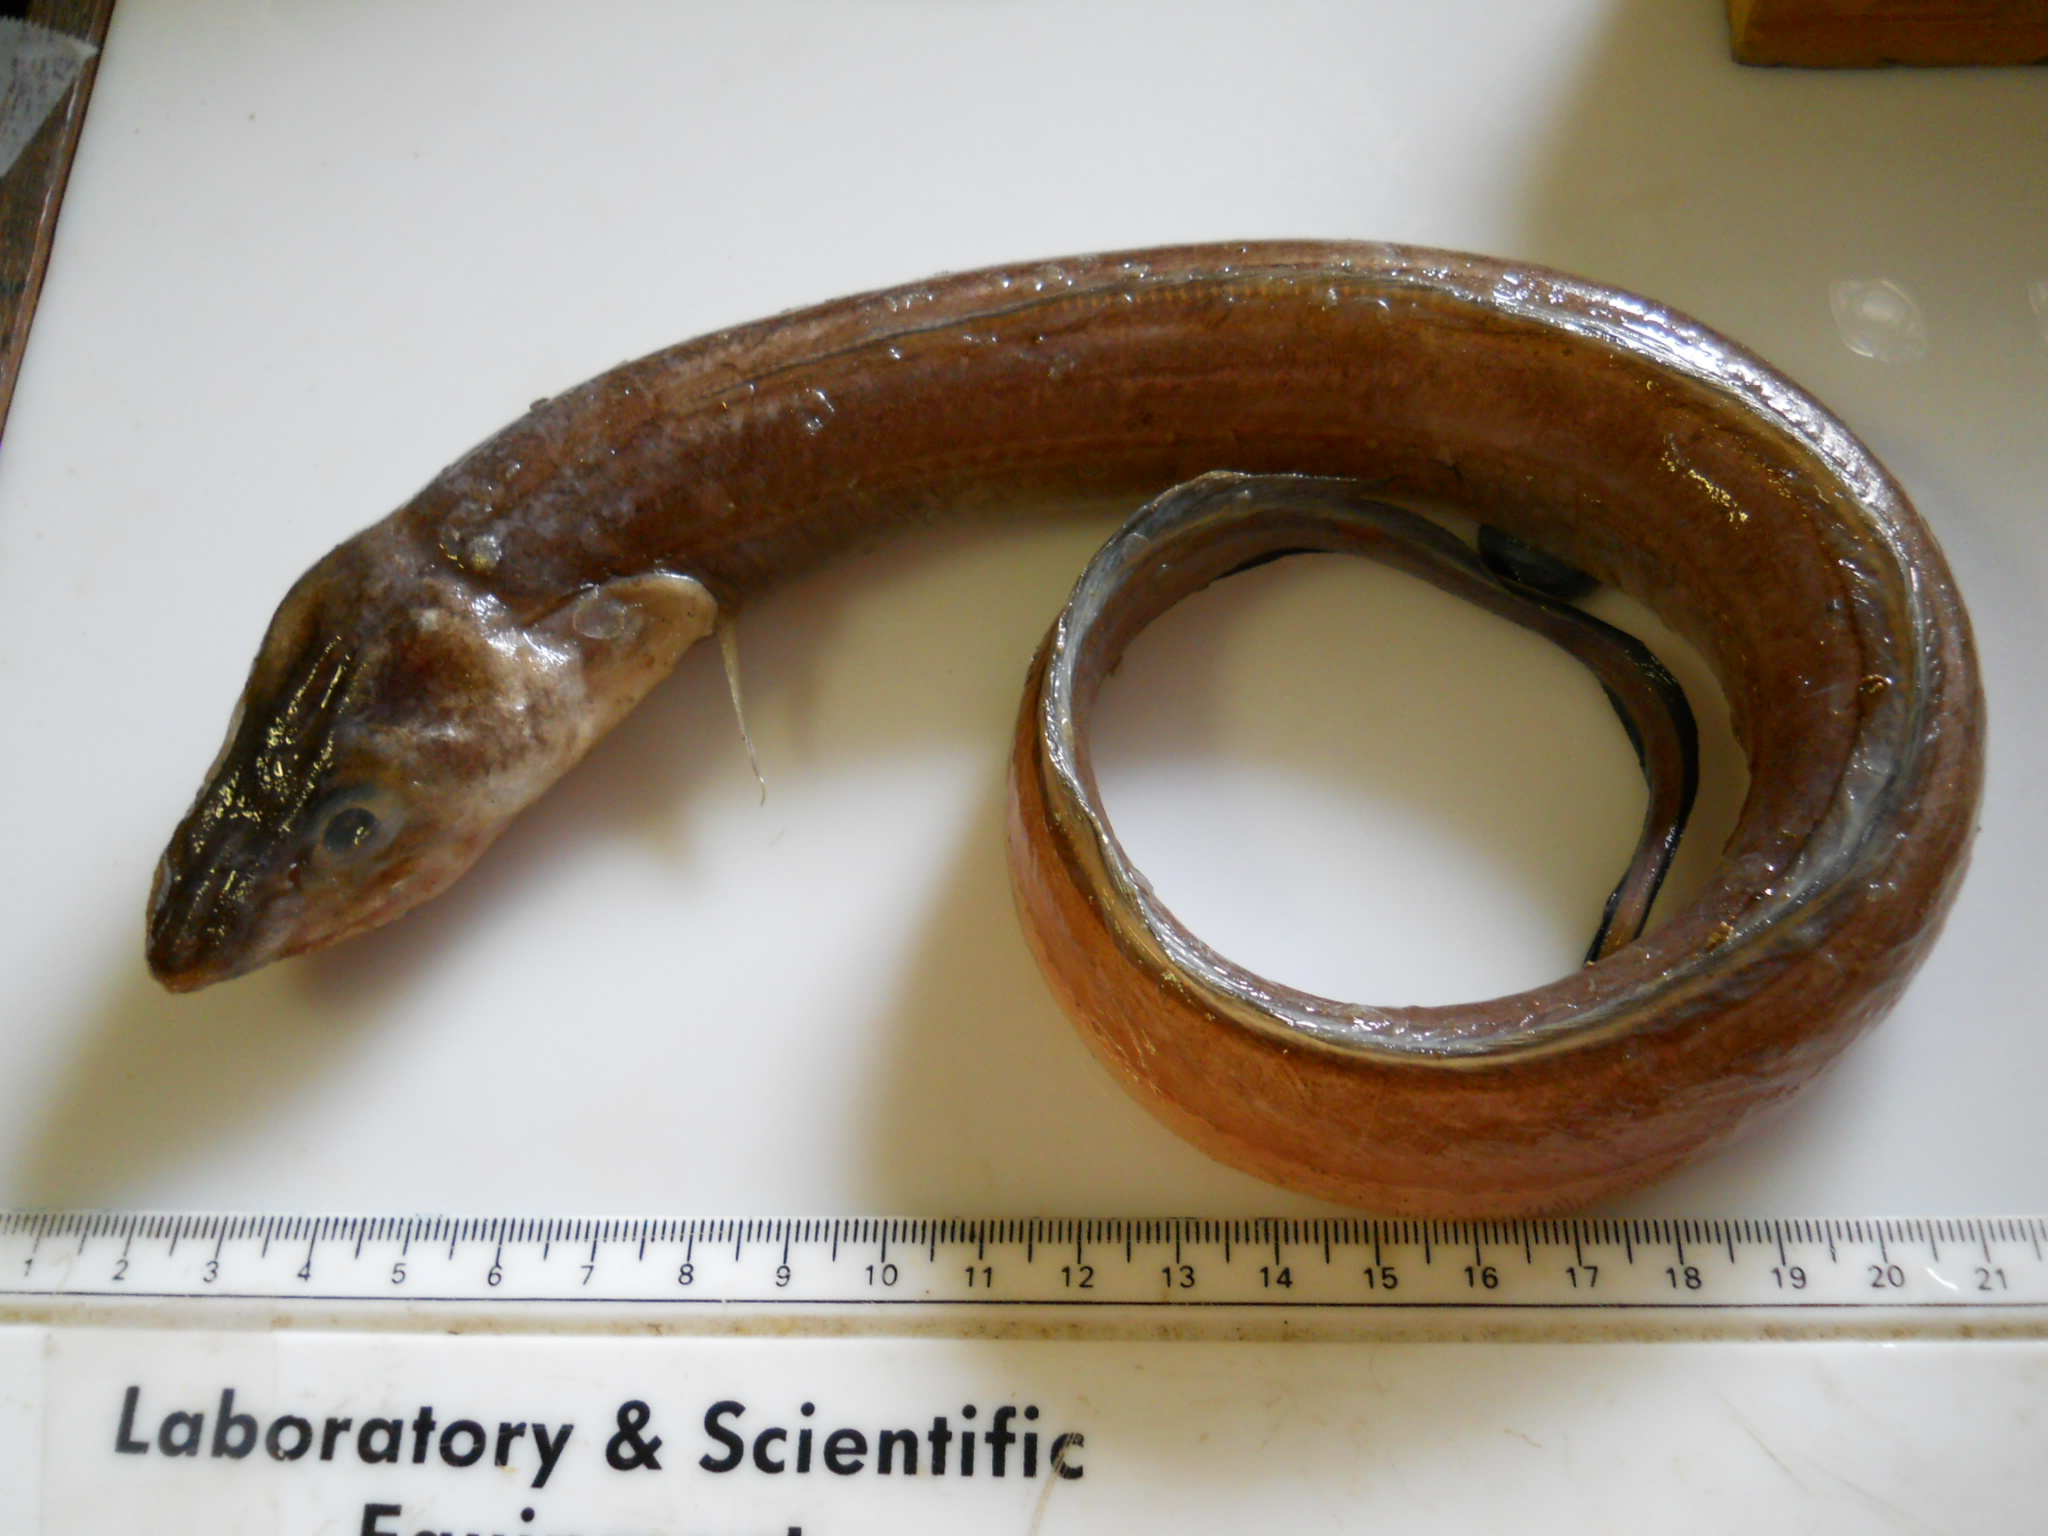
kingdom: Animalia
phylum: Chordata
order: Anguilliformes
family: Congridae
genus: Bathycongrus
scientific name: Bathycongrus wallacei
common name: Longnose conger
